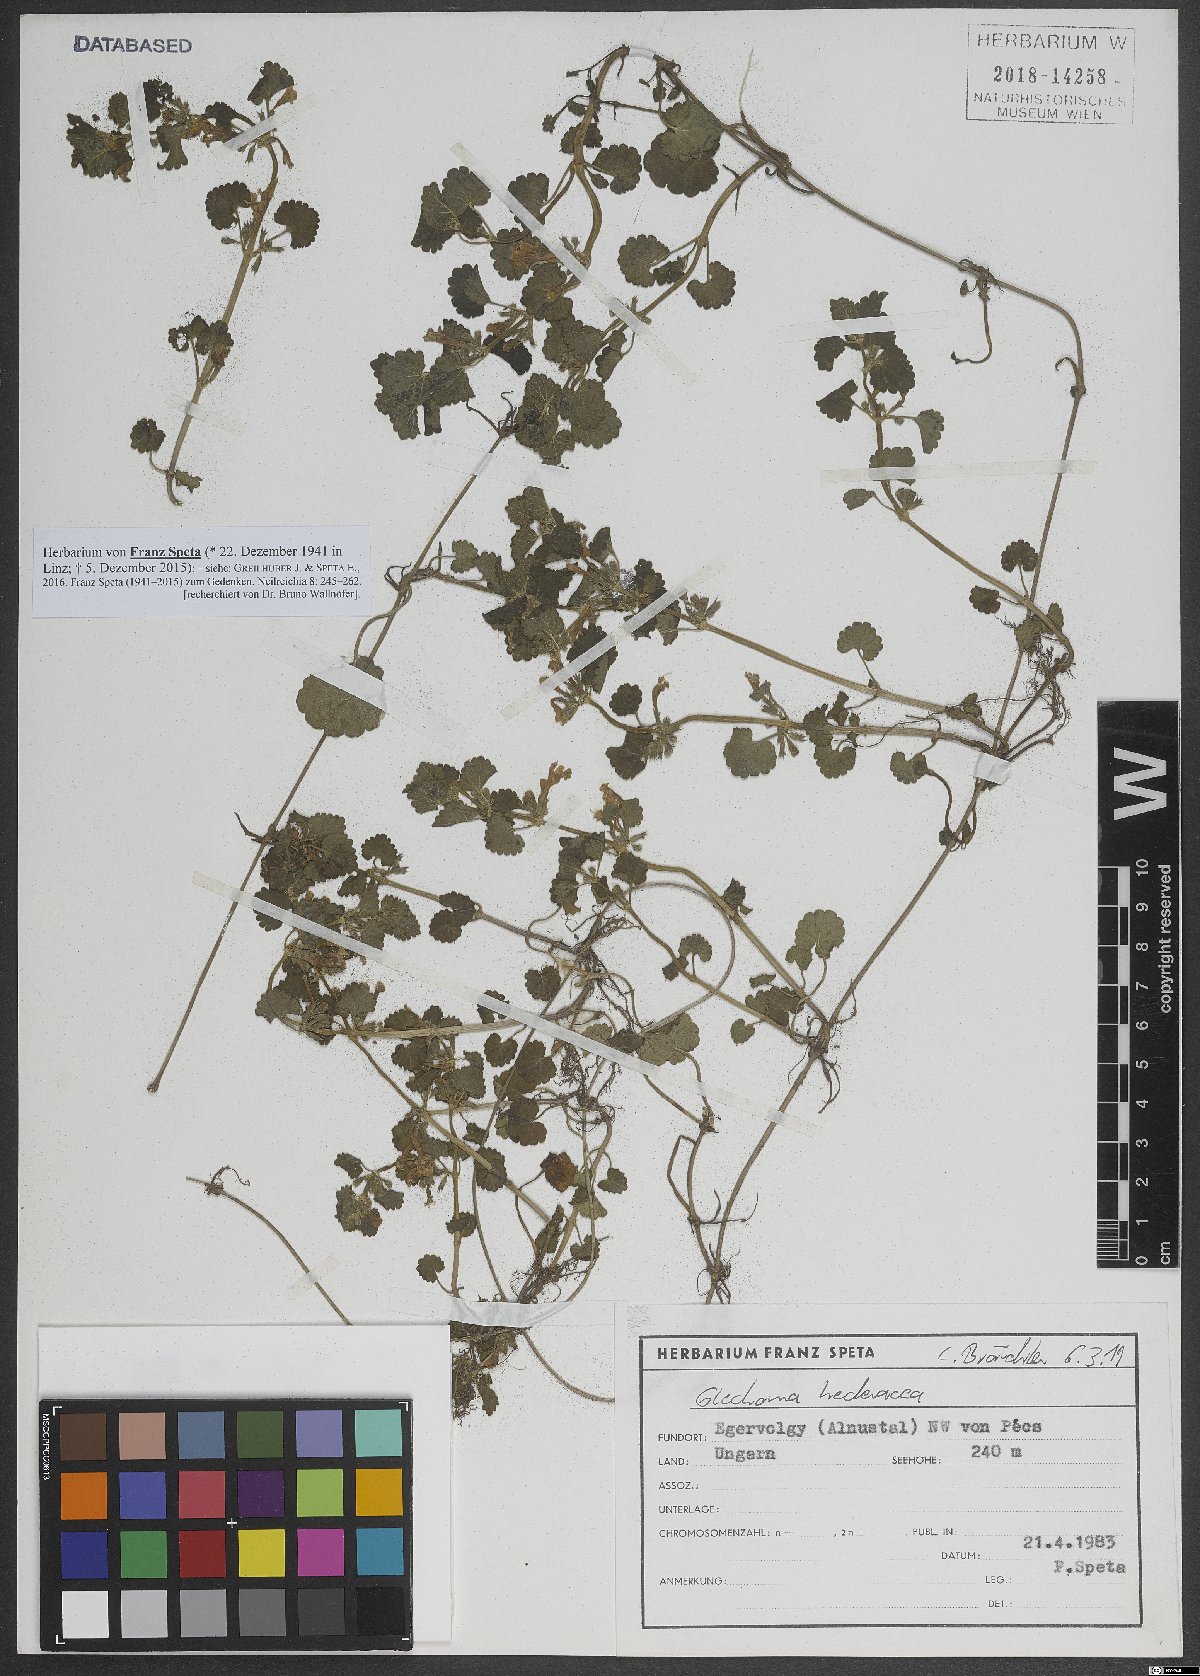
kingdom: Plantae
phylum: Tracheophyta
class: Magnoliopsida
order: Lamiales
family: Lamiaceae
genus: Glechoma
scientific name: Glechoma hederacea
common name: Ground ivy
